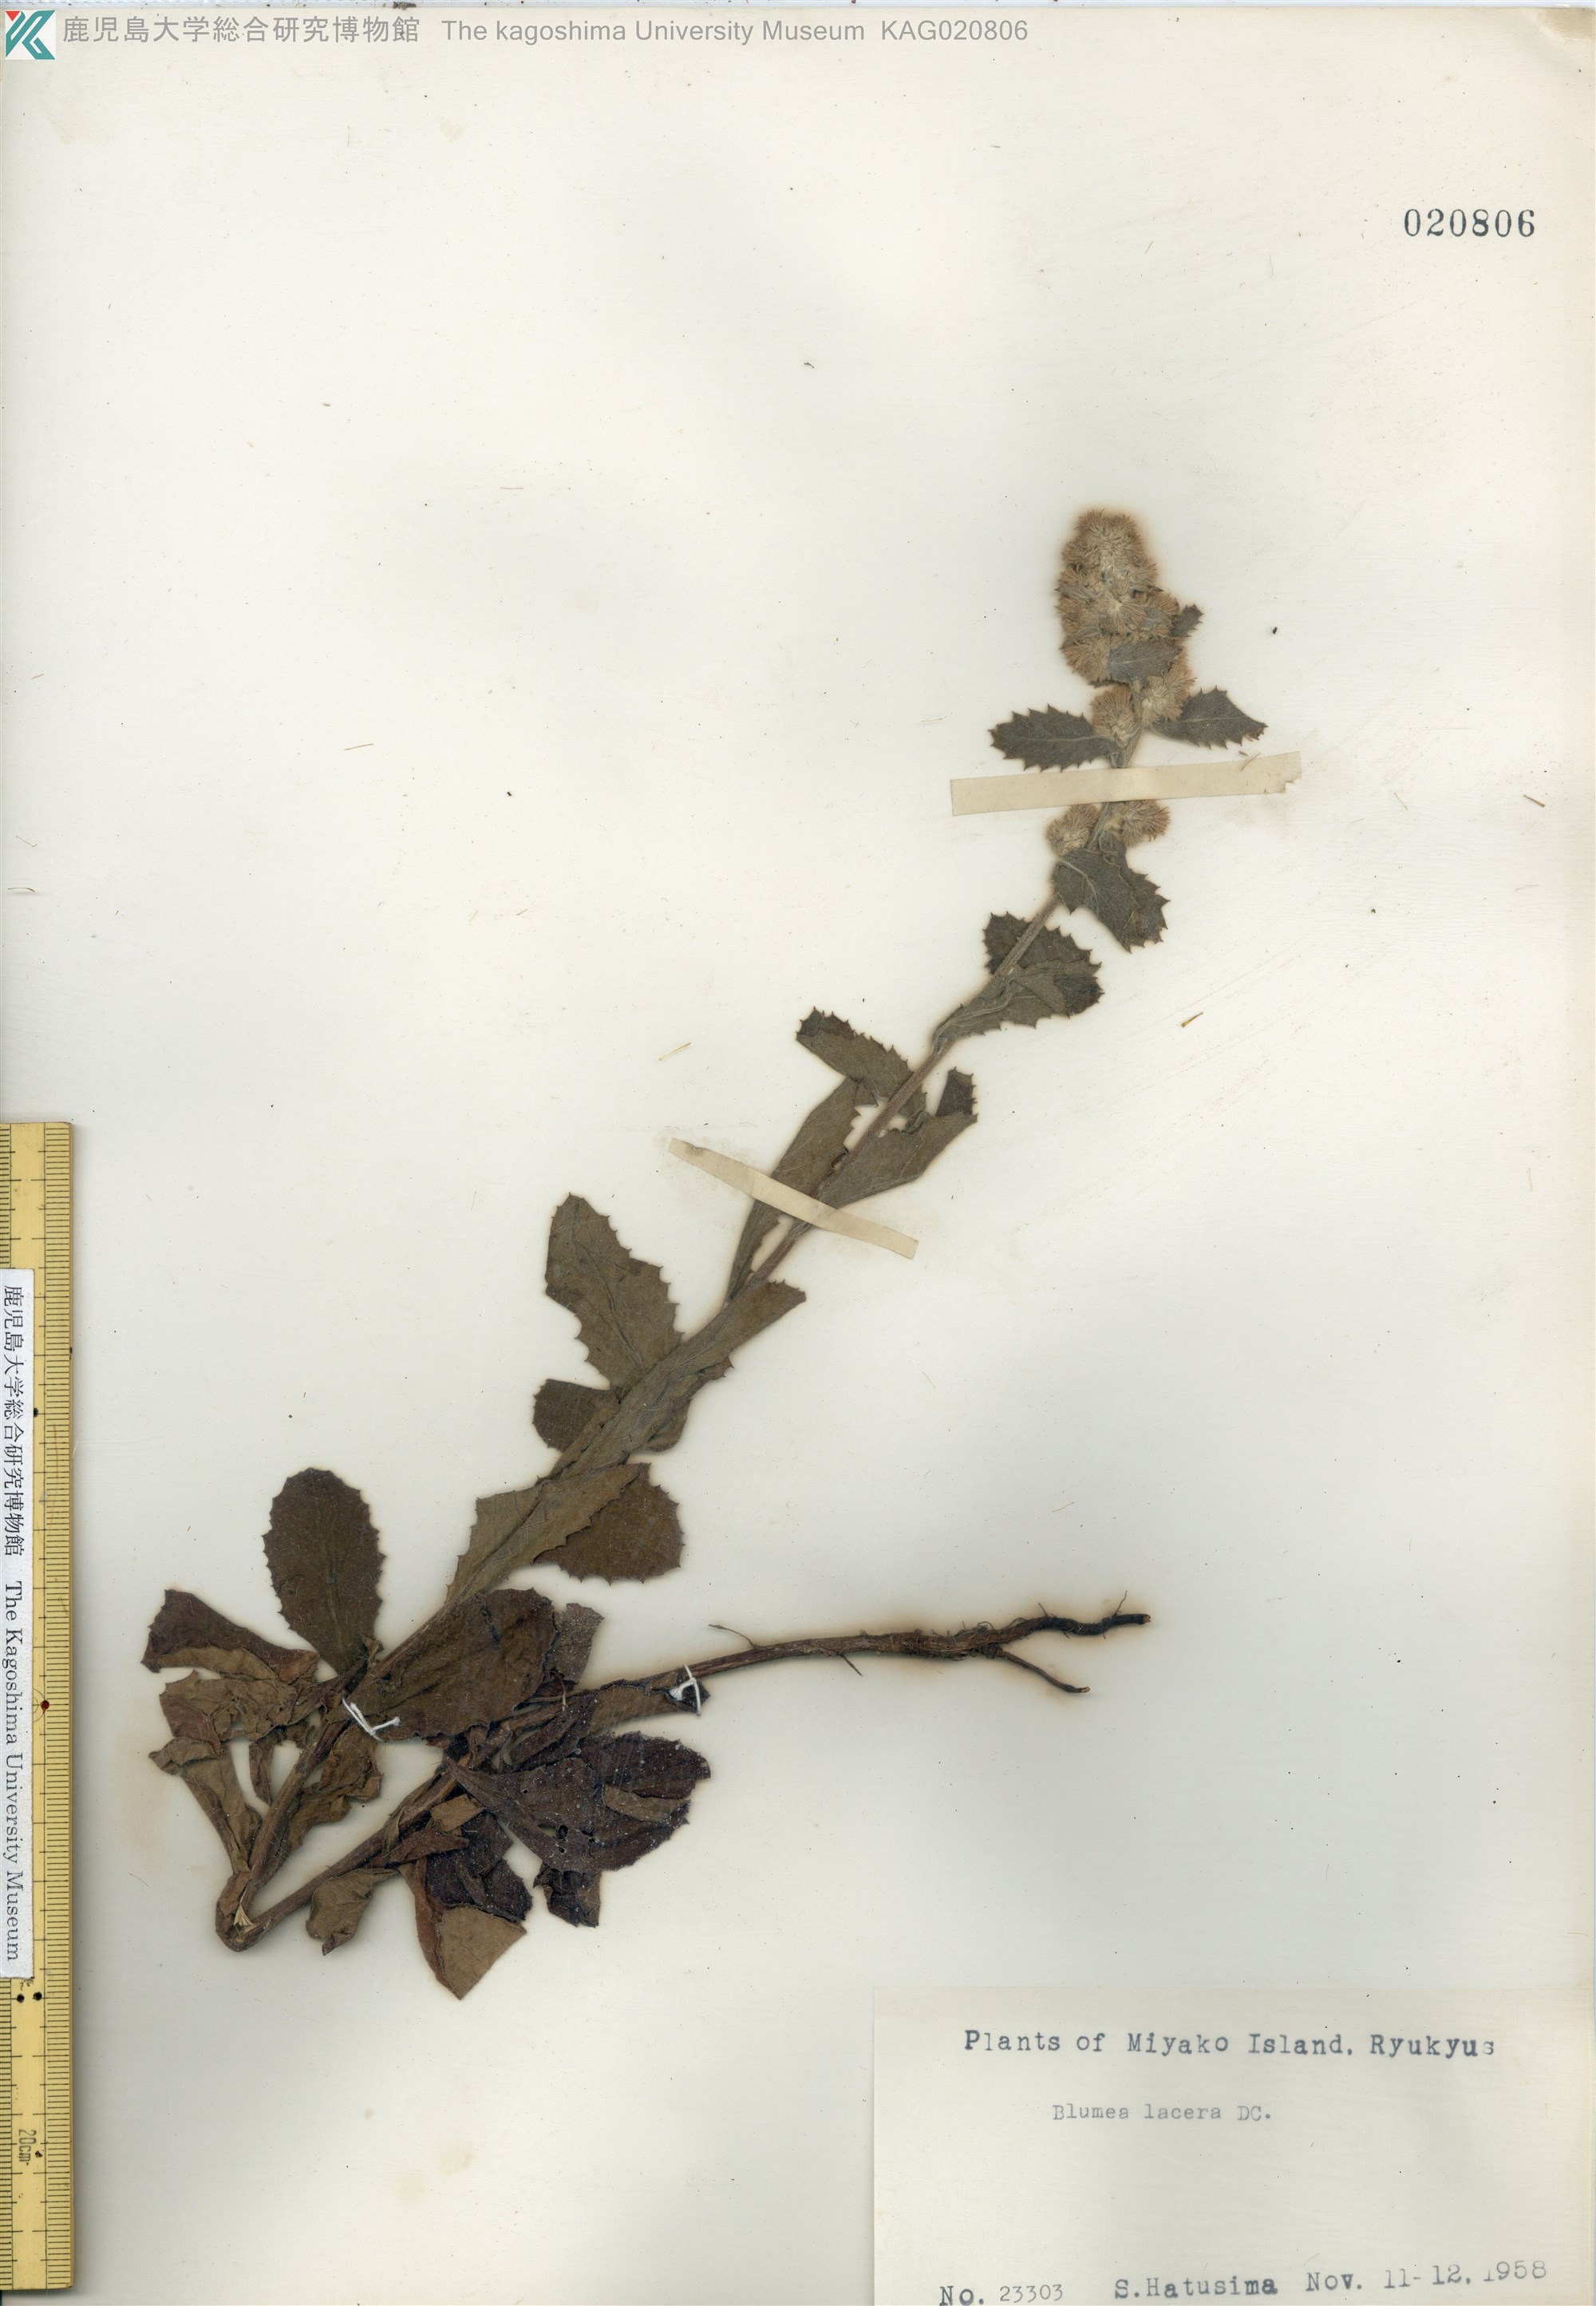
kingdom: Plantae
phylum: Tracheophyta
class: Magnoliopsida
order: Asterales
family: Asteraceae
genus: Blumea
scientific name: Blumea lacera
